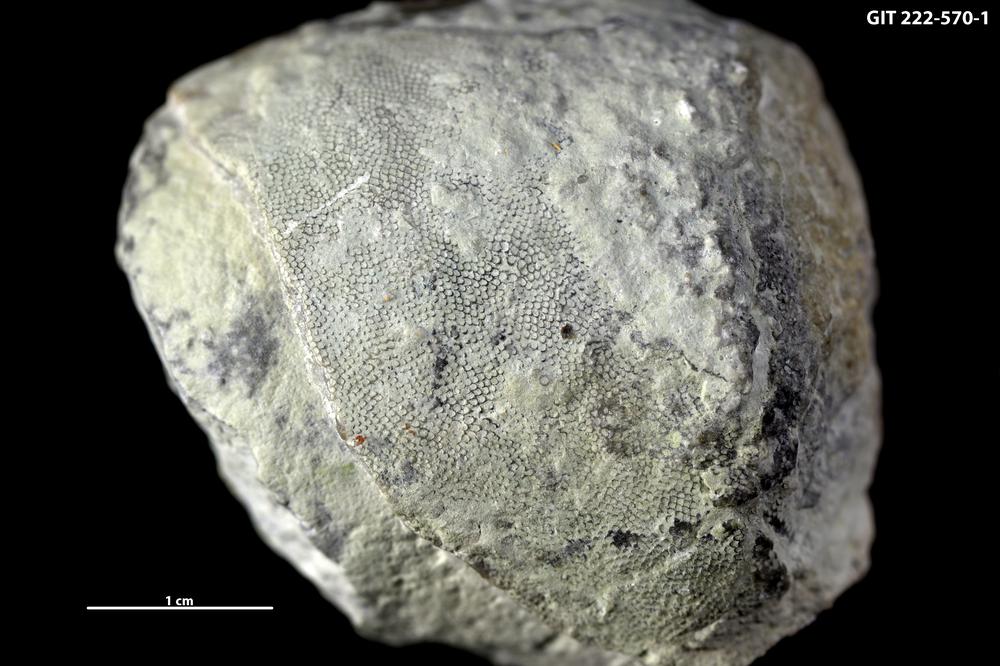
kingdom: Animalia
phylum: Bryozoa
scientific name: Bryozoa
